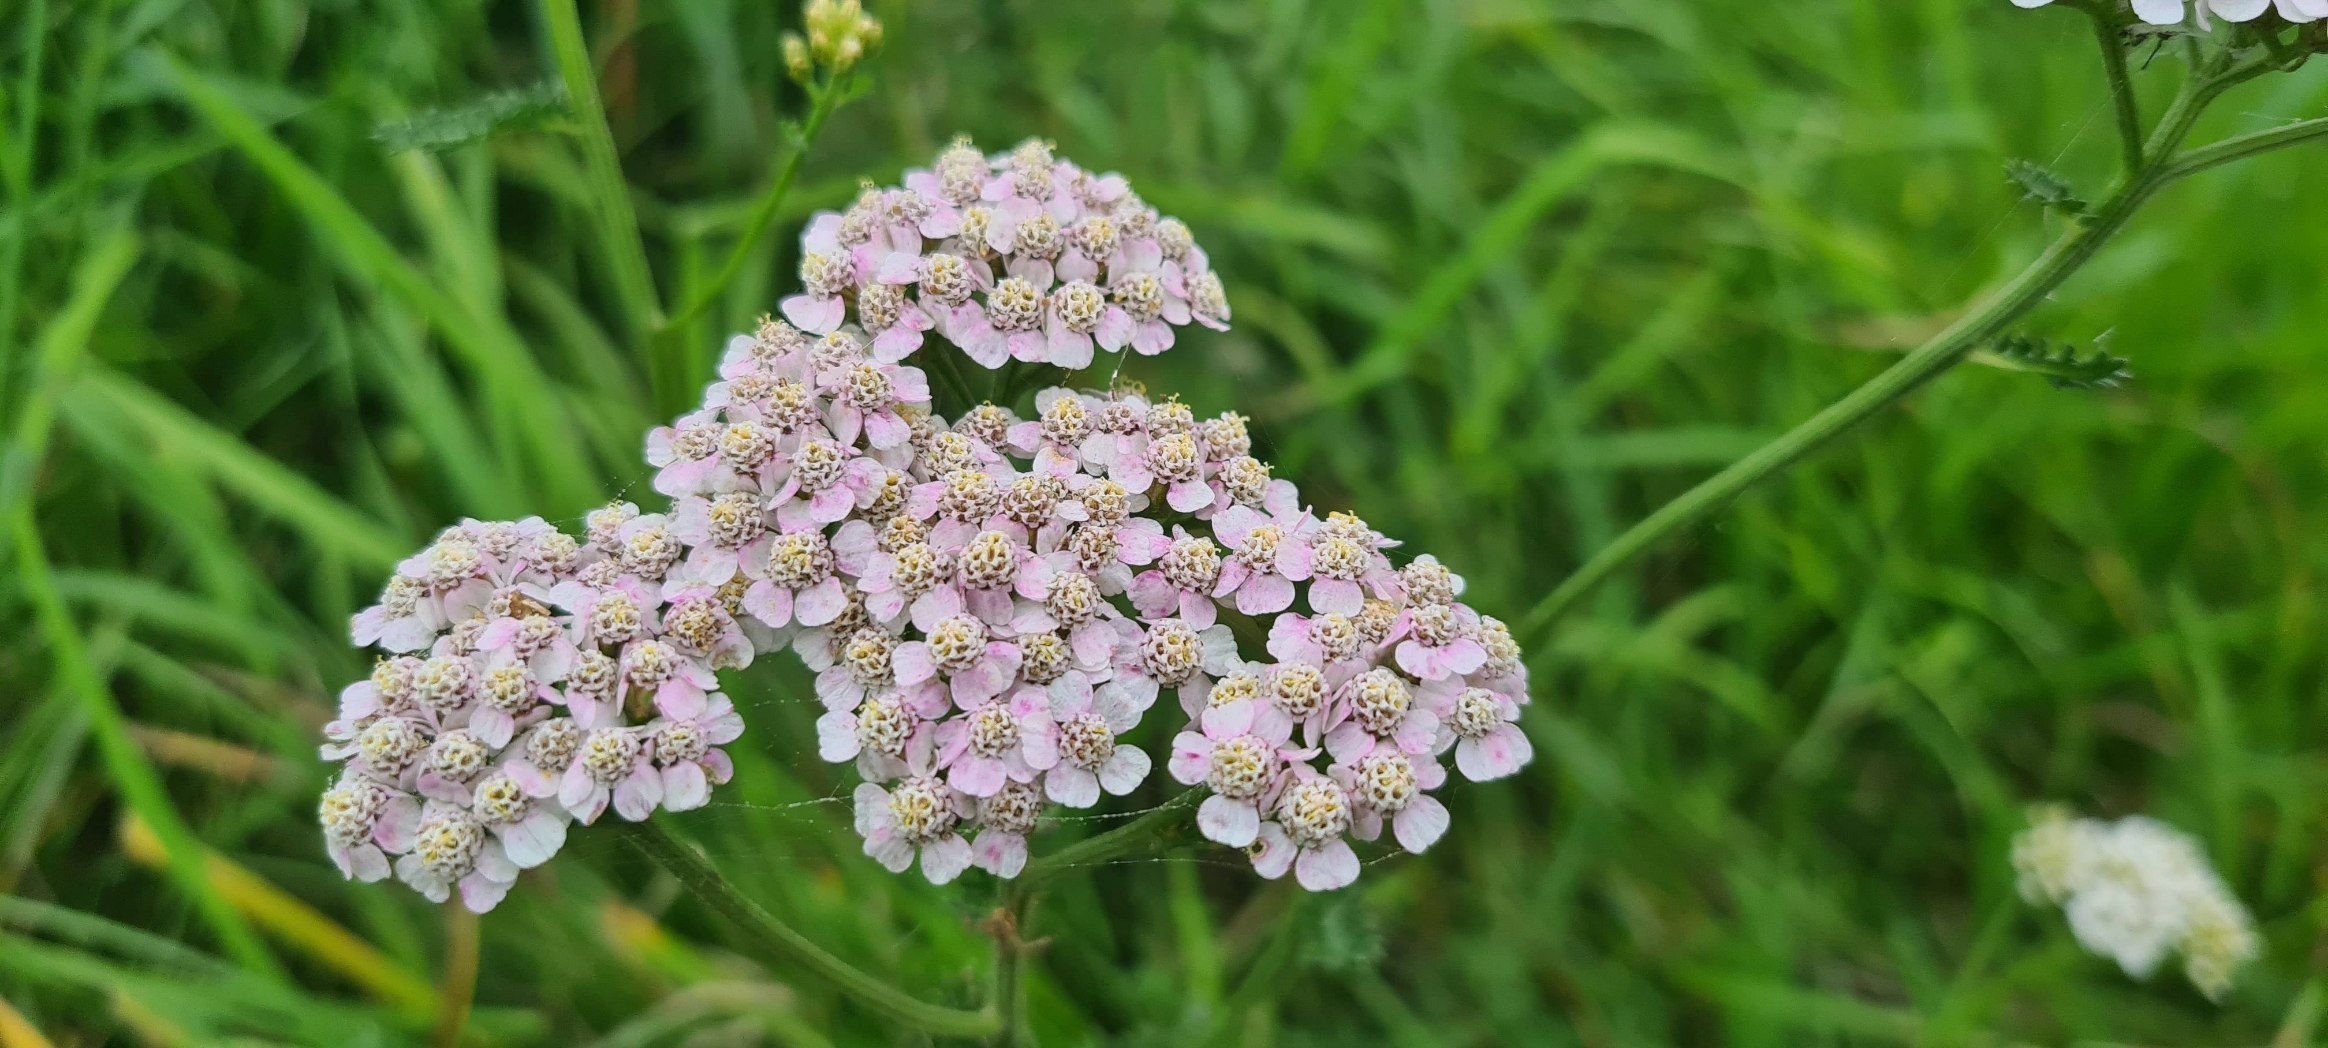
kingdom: Plantae
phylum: Tracheophyta
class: Magnoliopsida
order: Asterales
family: Asteraceae
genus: Achillea
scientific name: Achillea millefolium
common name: Almindelig røllike
